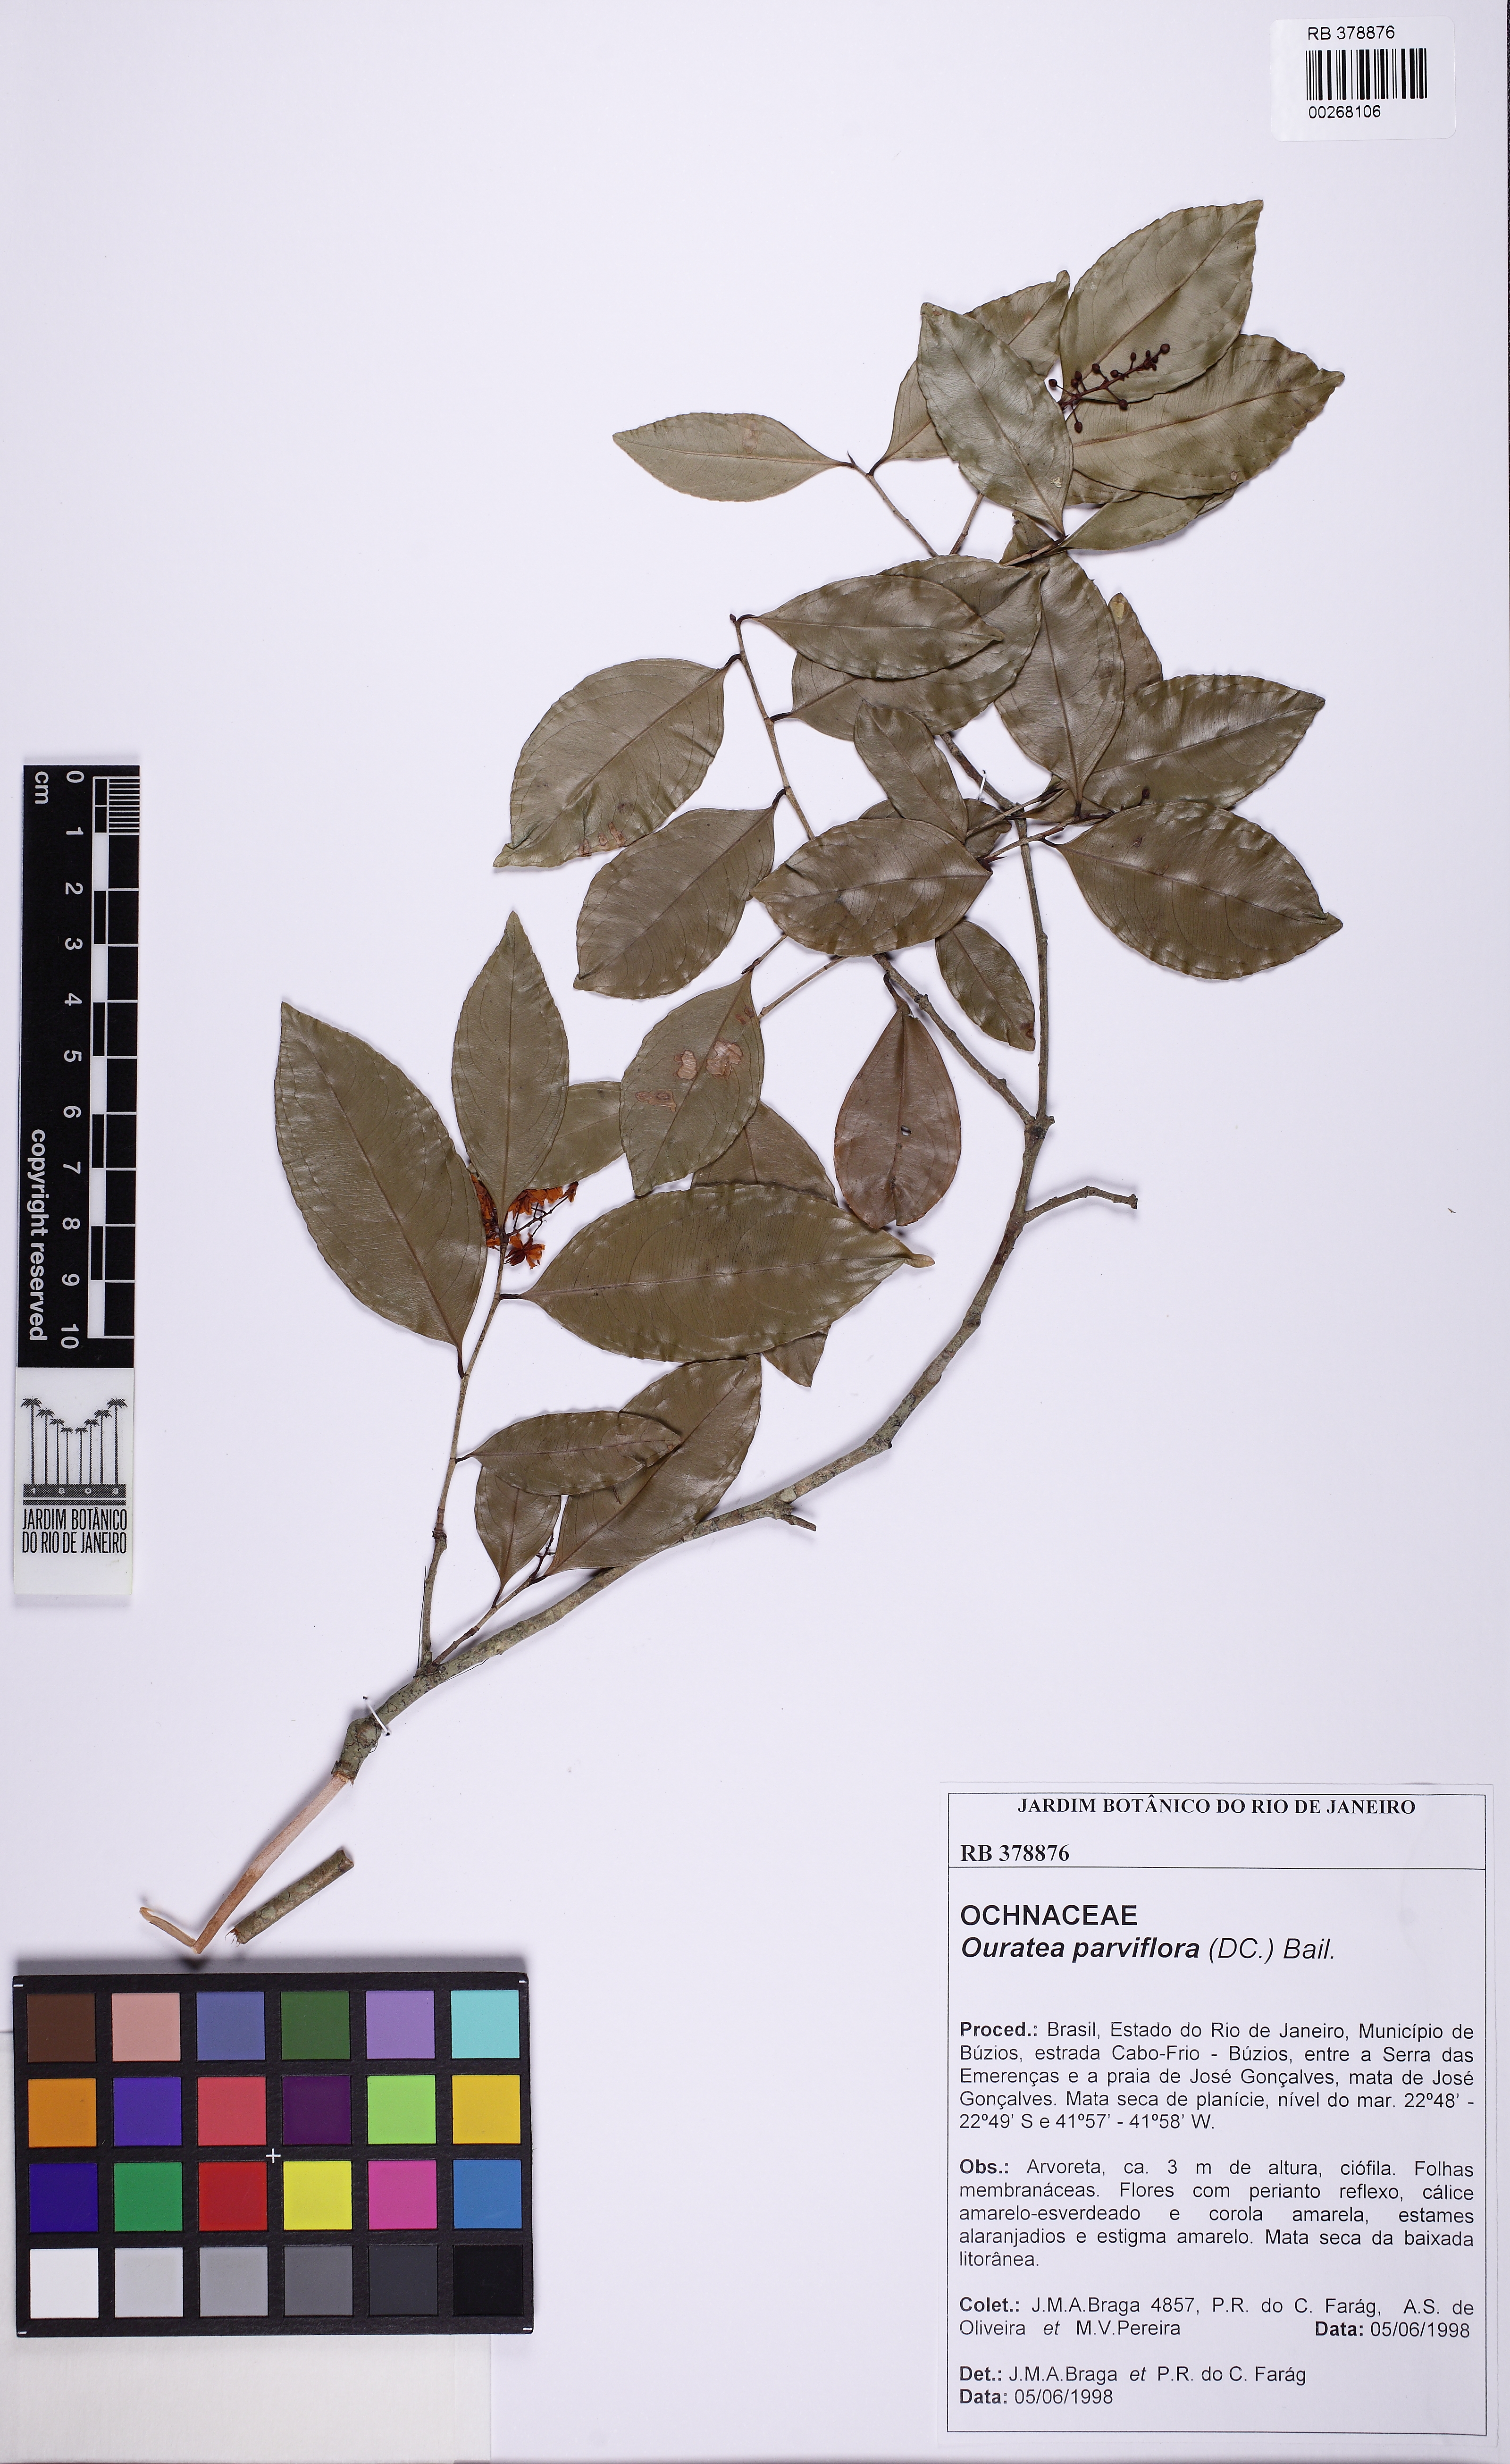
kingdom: Plantae
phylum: Tracheophyta
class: Magnoliopsida
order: Malpighiales
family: Ochnaceae
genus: Ouratea
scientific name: Ouratea parviflora
